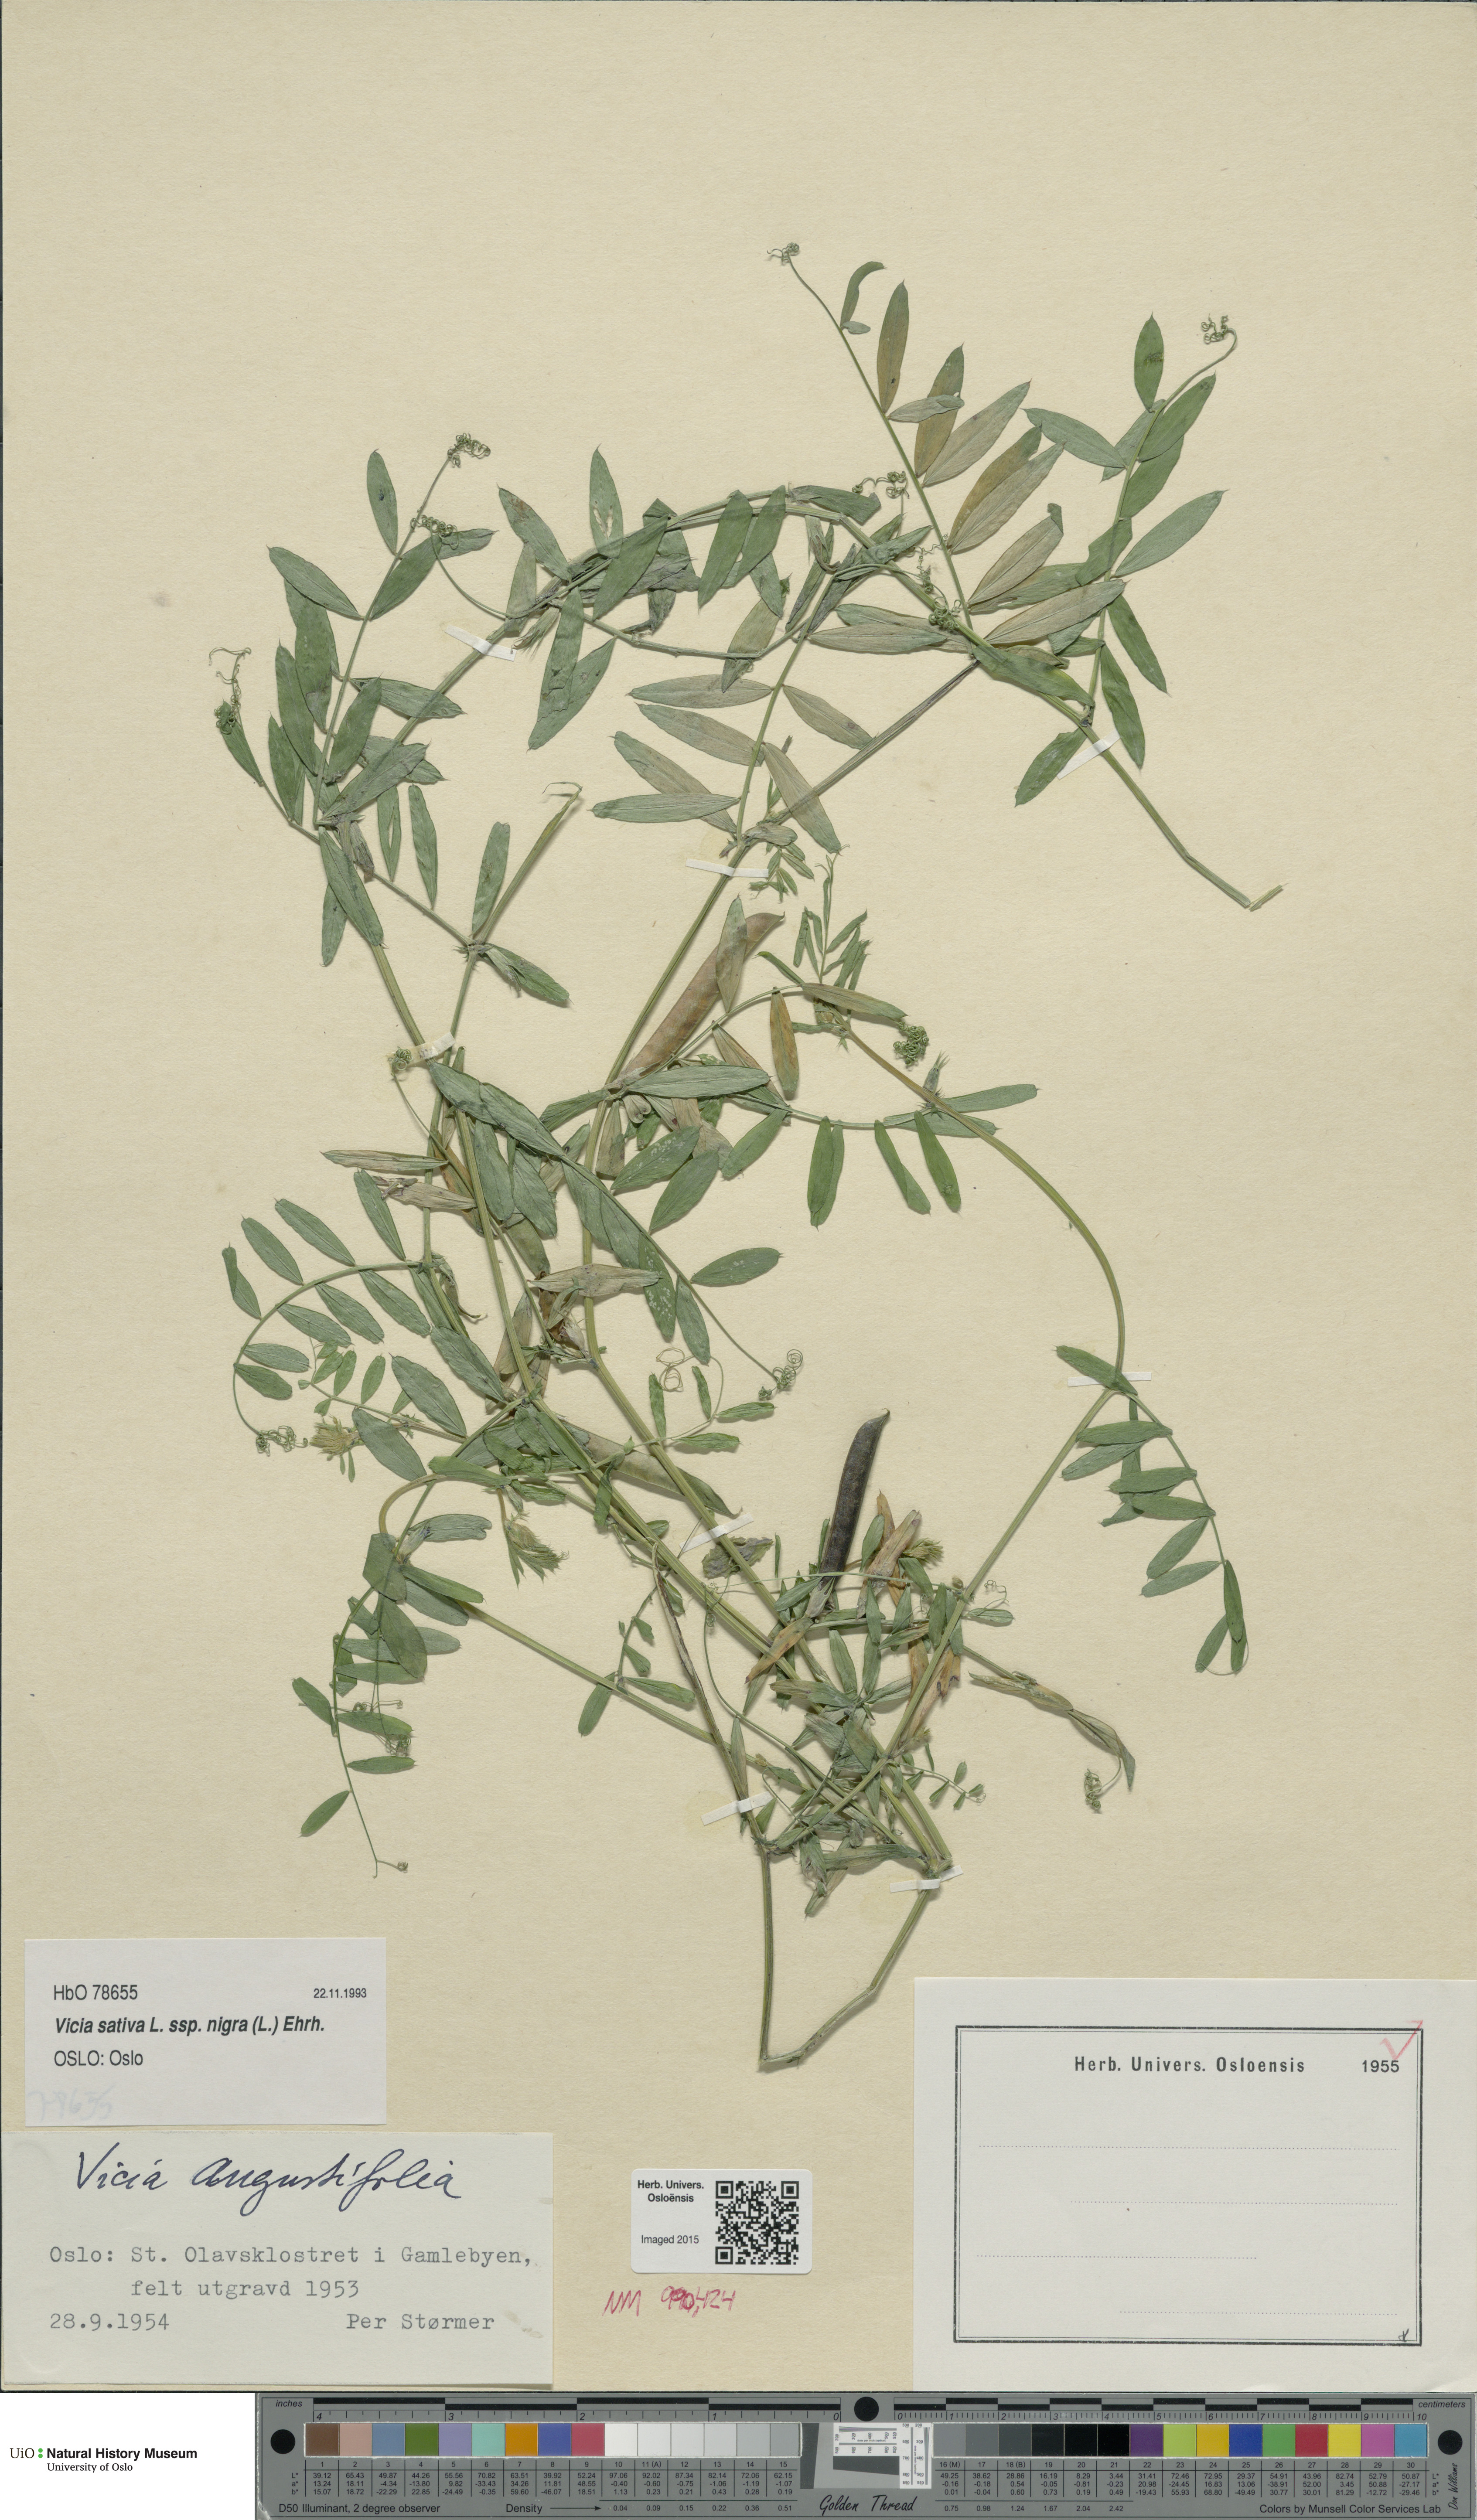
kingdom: Plantae
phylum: Tracheophyta
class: Magnoliopsida
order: Fabales
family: Fabaceae
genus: Vicia
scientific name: Vicia sativa
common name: Garden vetch
